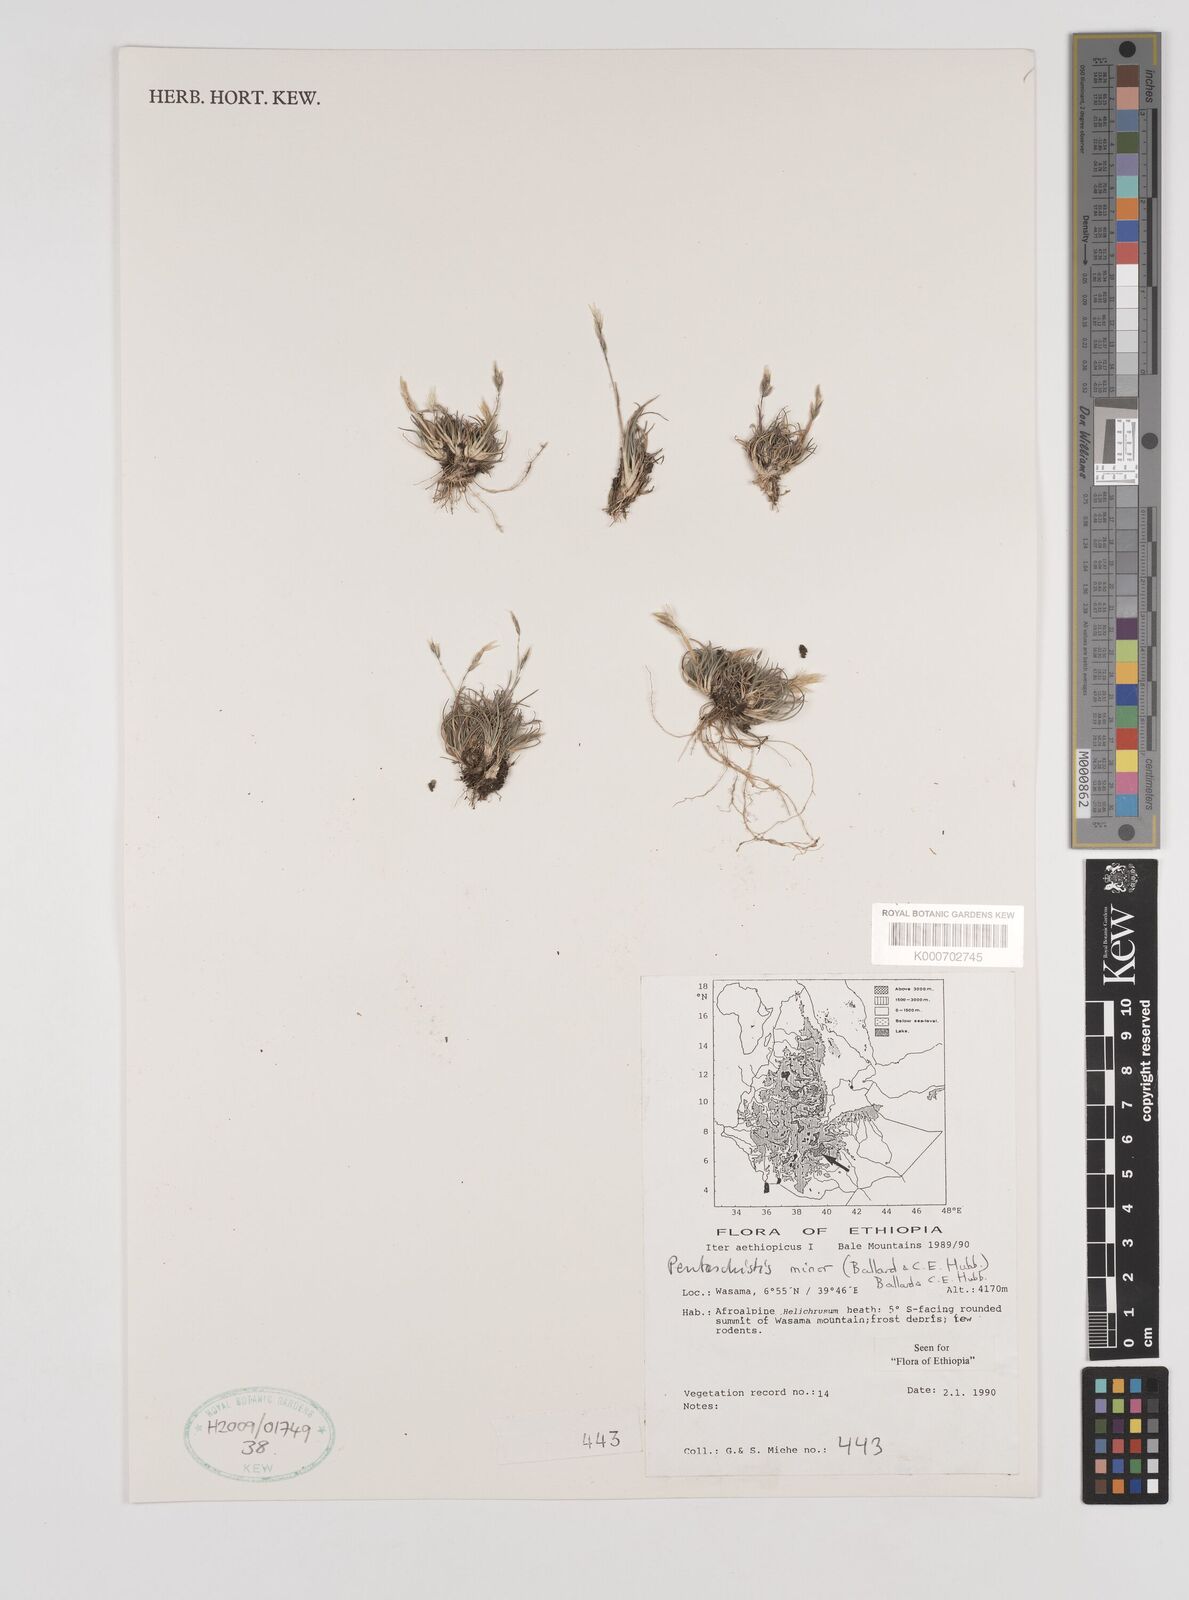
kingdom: Plantae
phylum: Tracheophyta
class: Liliopsida
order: Poales
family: Poaceae
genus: Pentameris
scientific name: Pentameris minor
